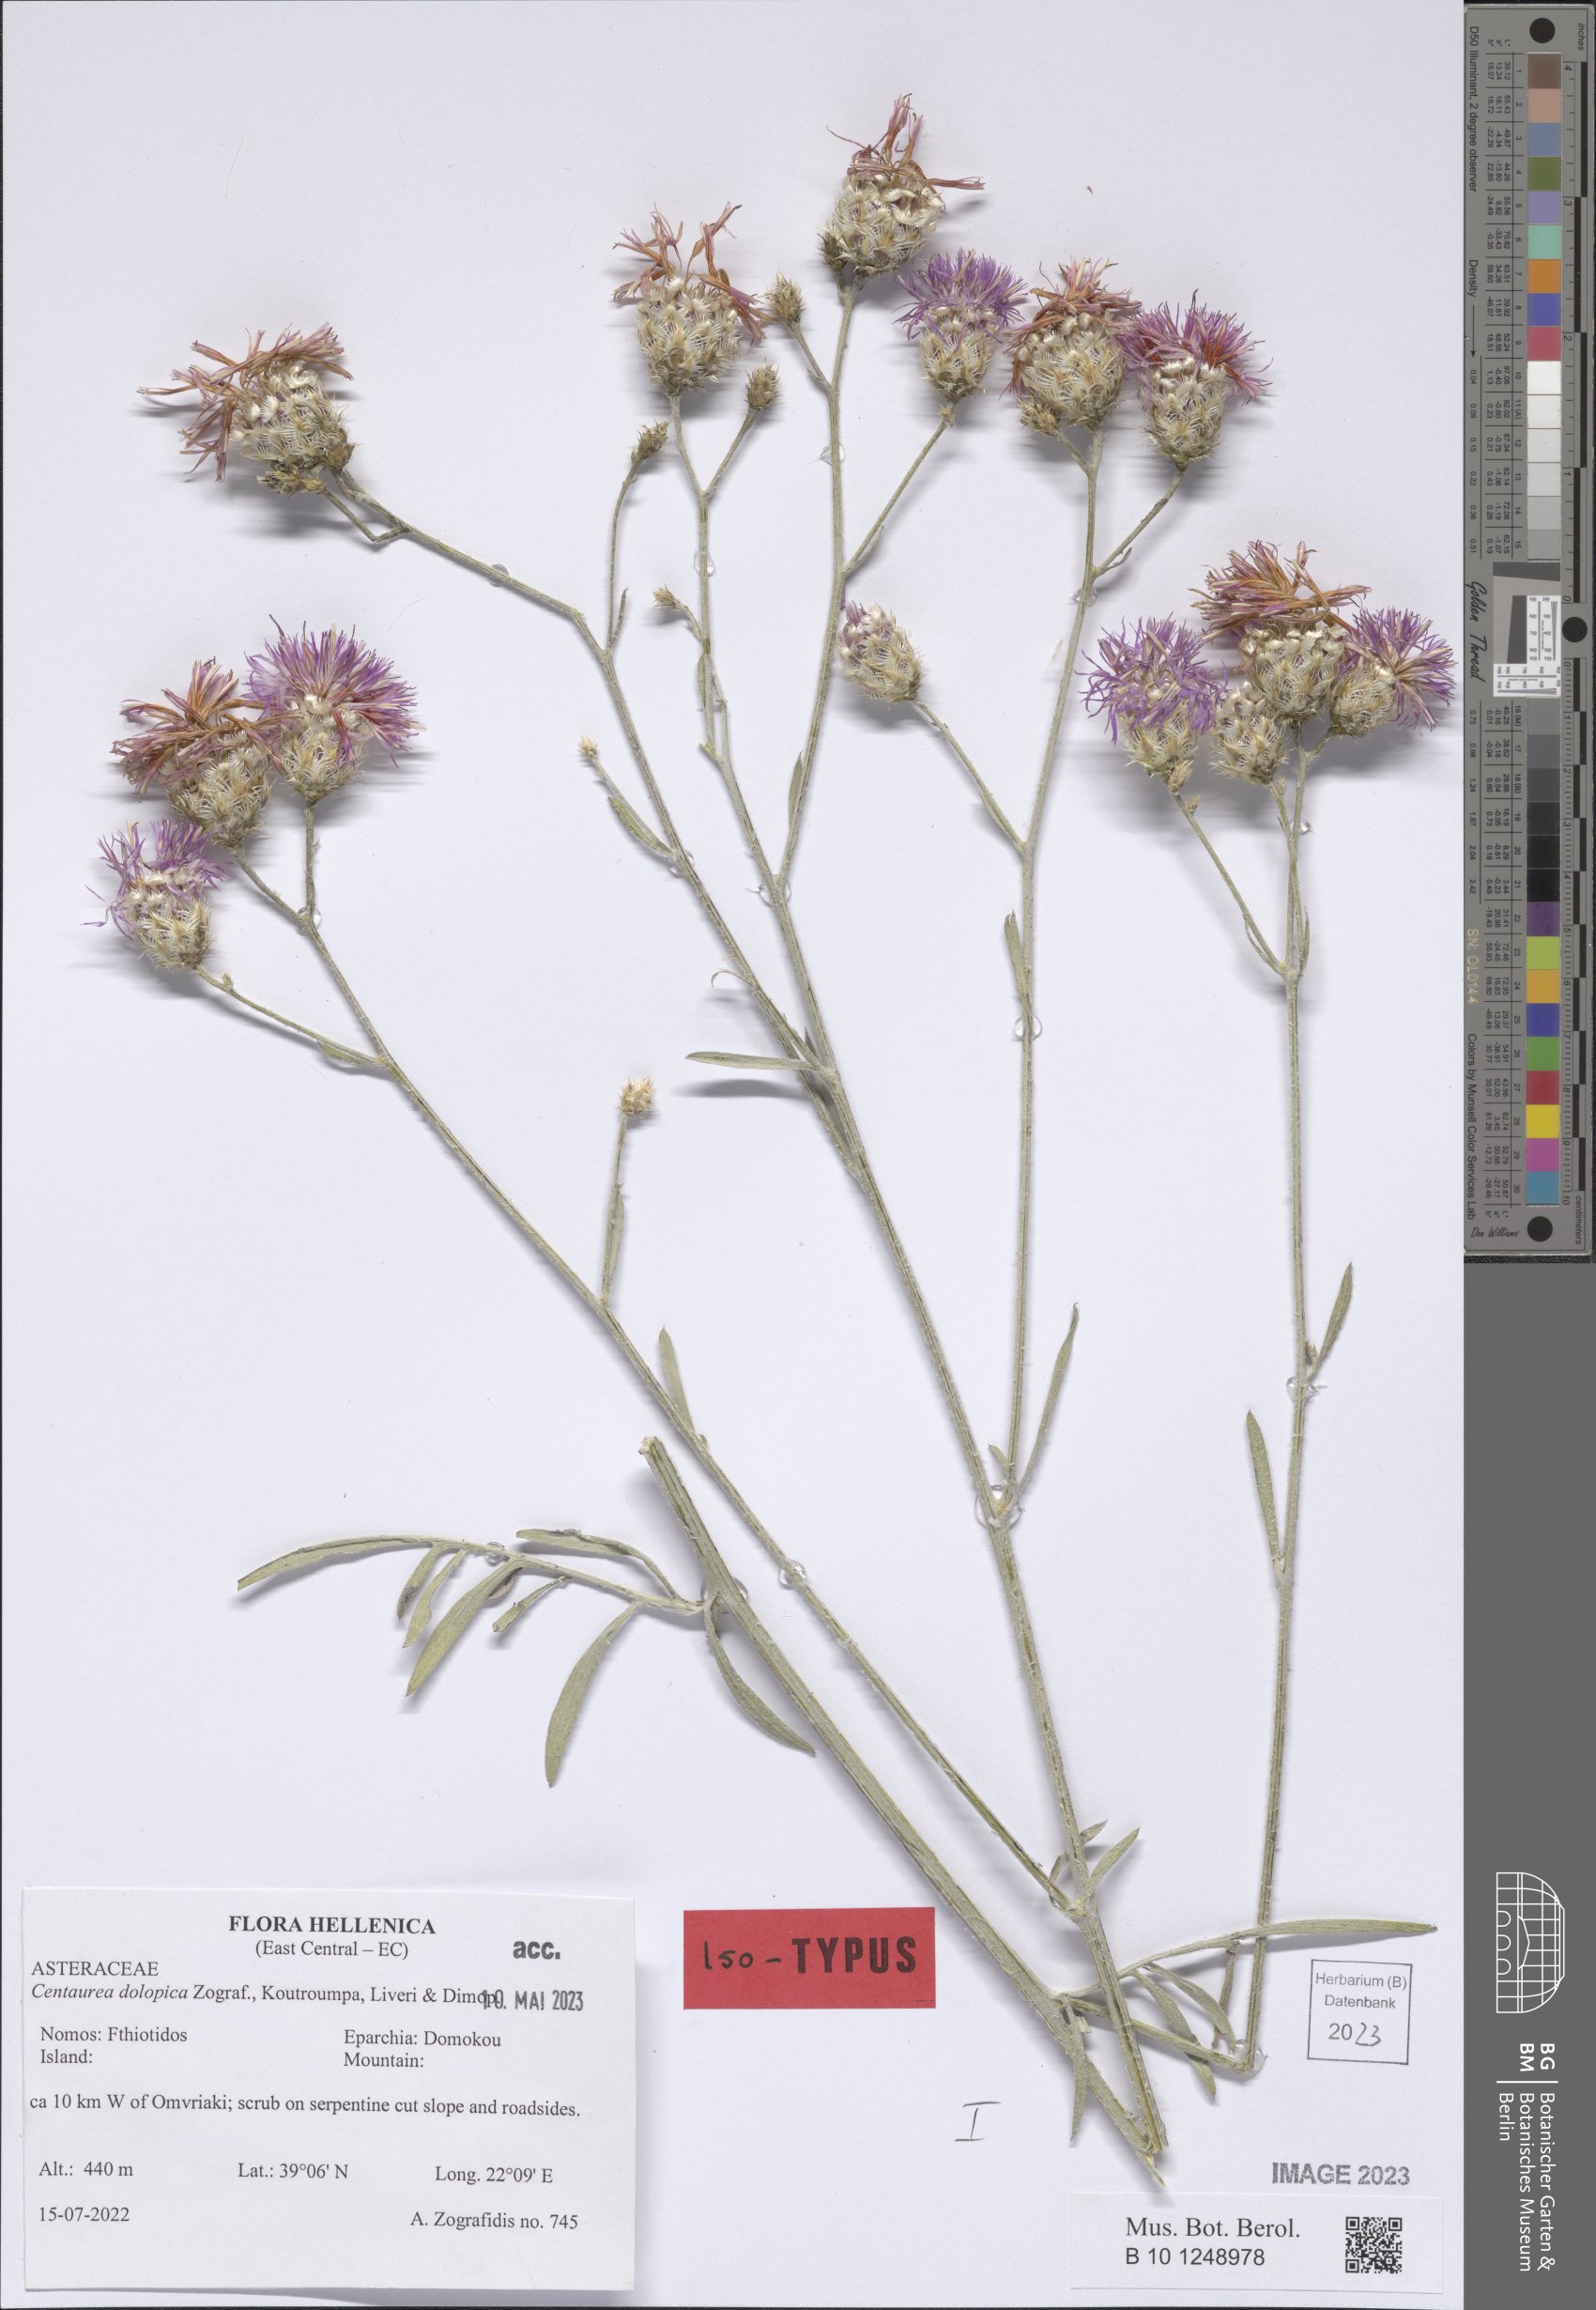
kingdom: Plantae
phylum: Tracheophyta
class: Magnoliopsida
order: Asterales
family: Asteraceae
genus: Centaurea
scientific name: Centaurea dolopica
